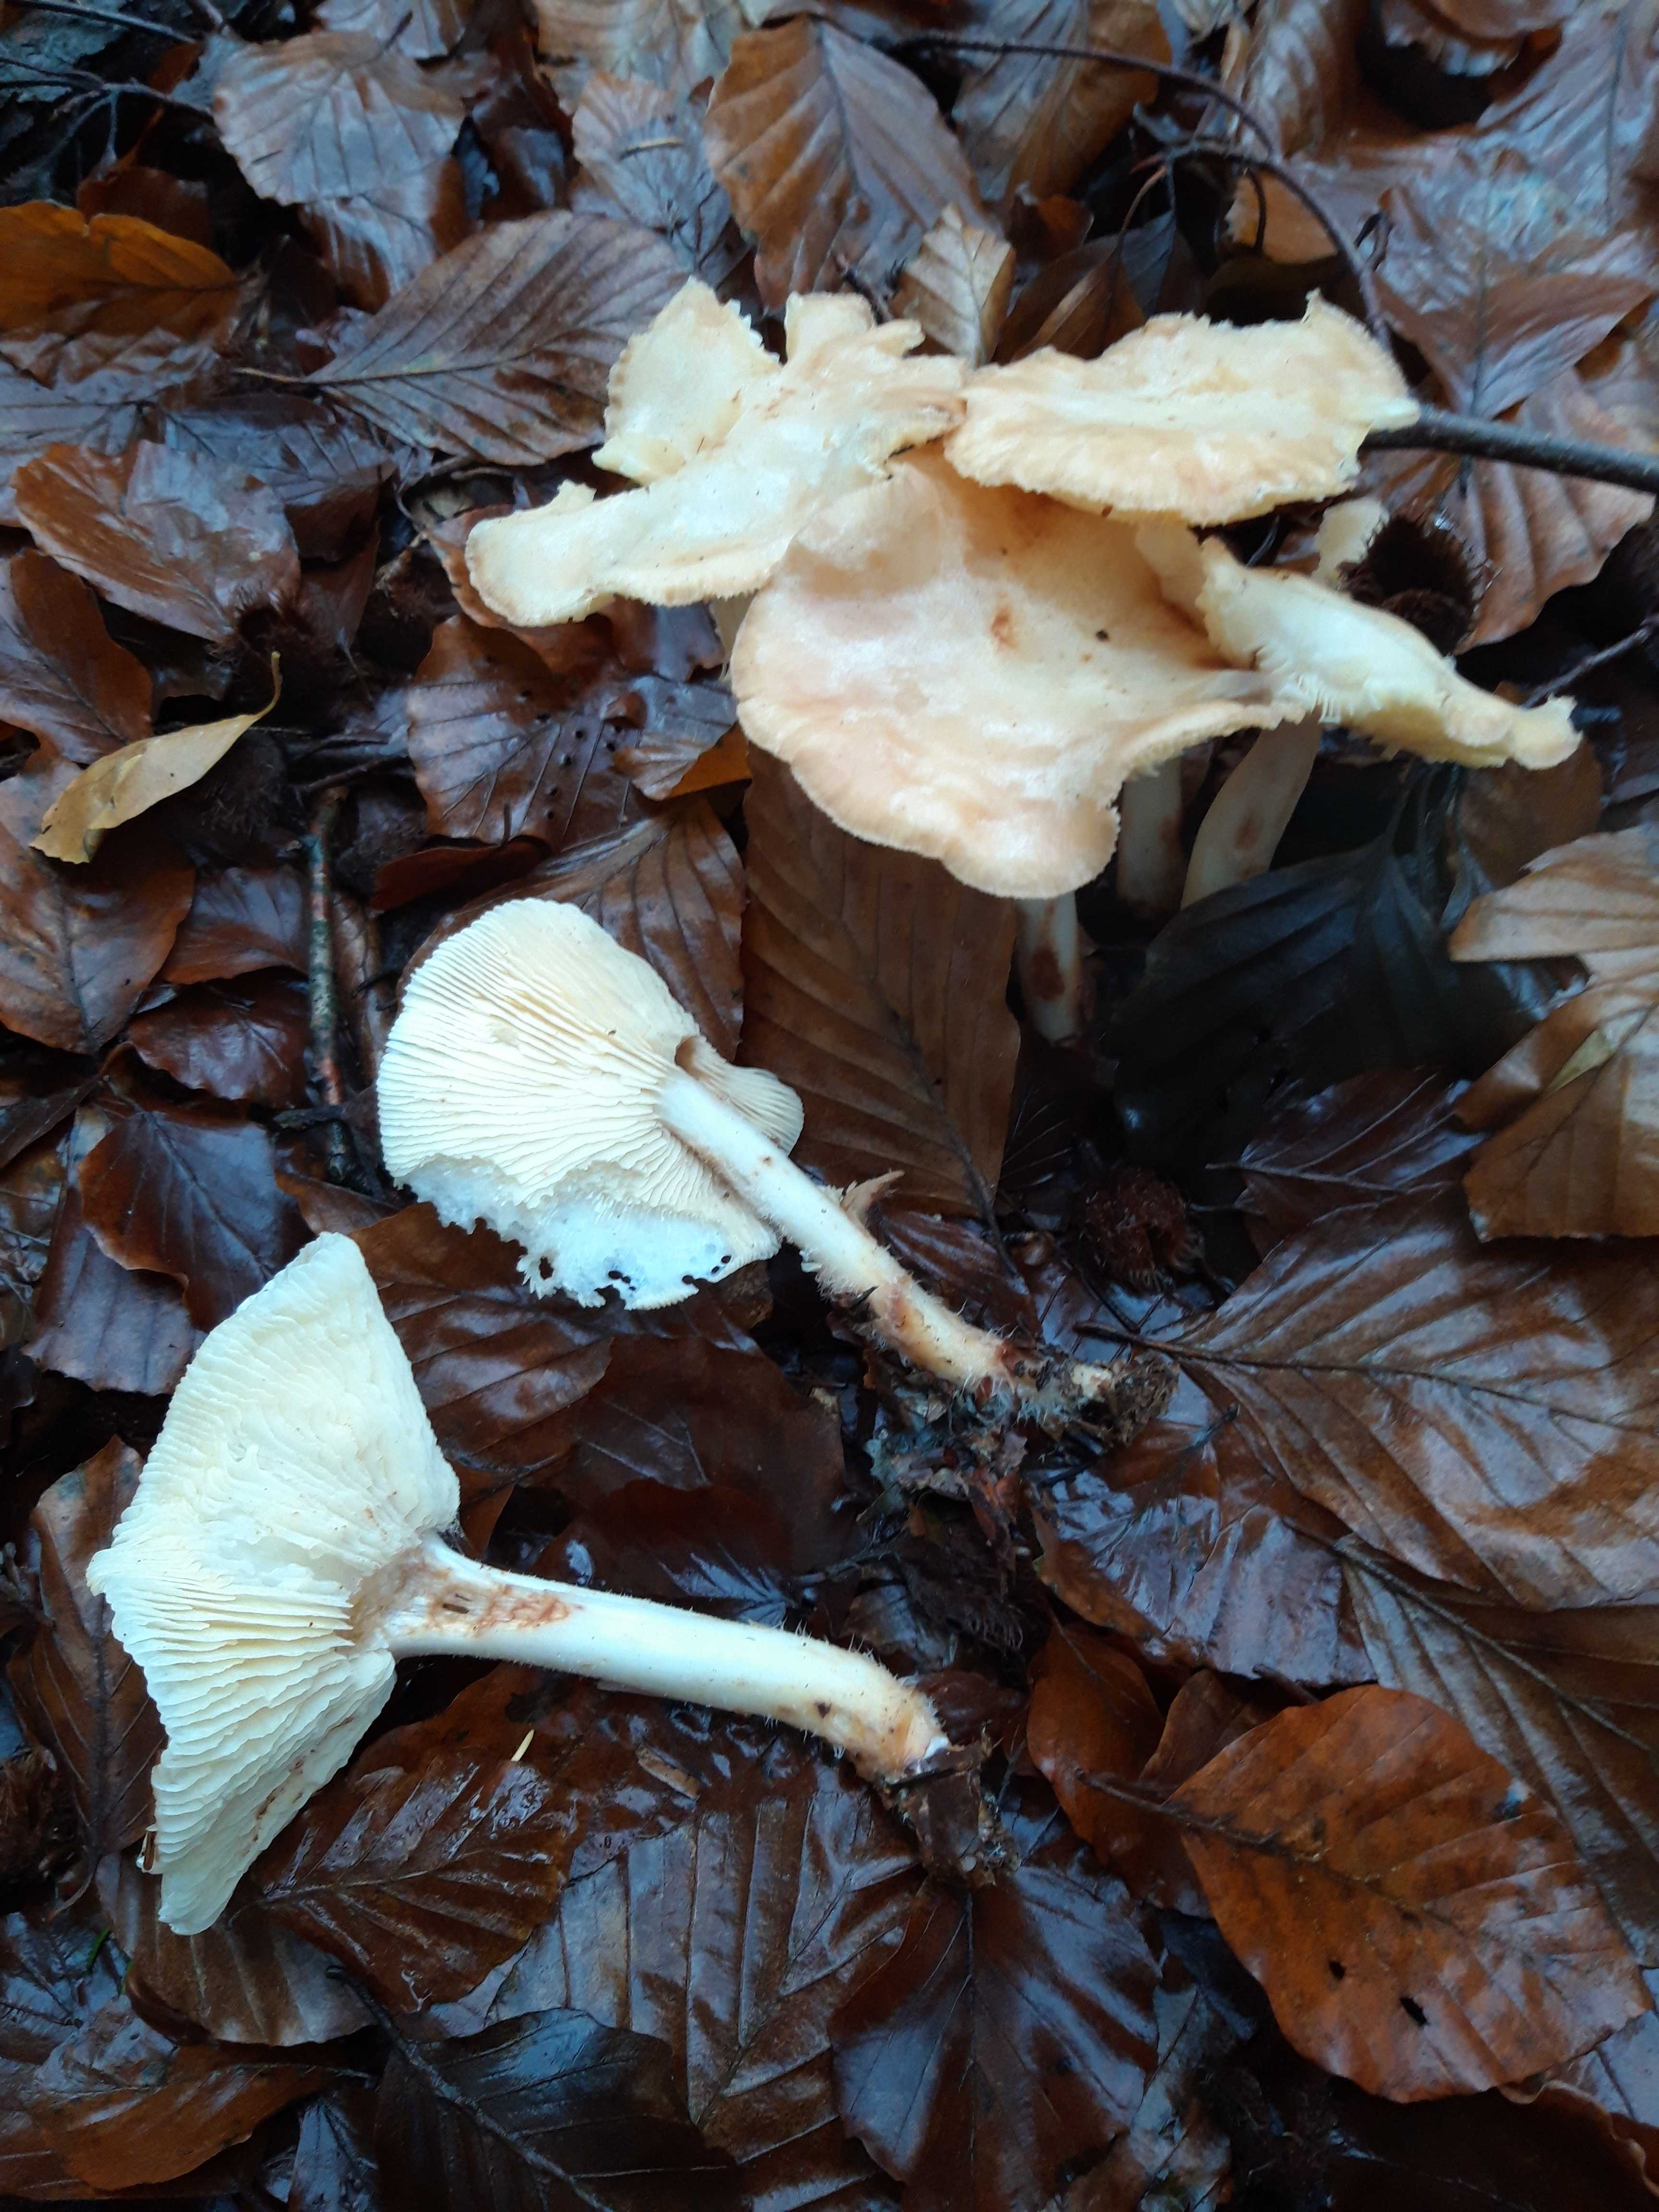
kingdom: Fungi
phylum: Basidiomycota
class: Agaricomycetes
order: Agaricales
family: Omphalotaceae
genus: Rhodocollybia
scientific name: Rhodocollybia maculata
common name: Spotted tough-shank
